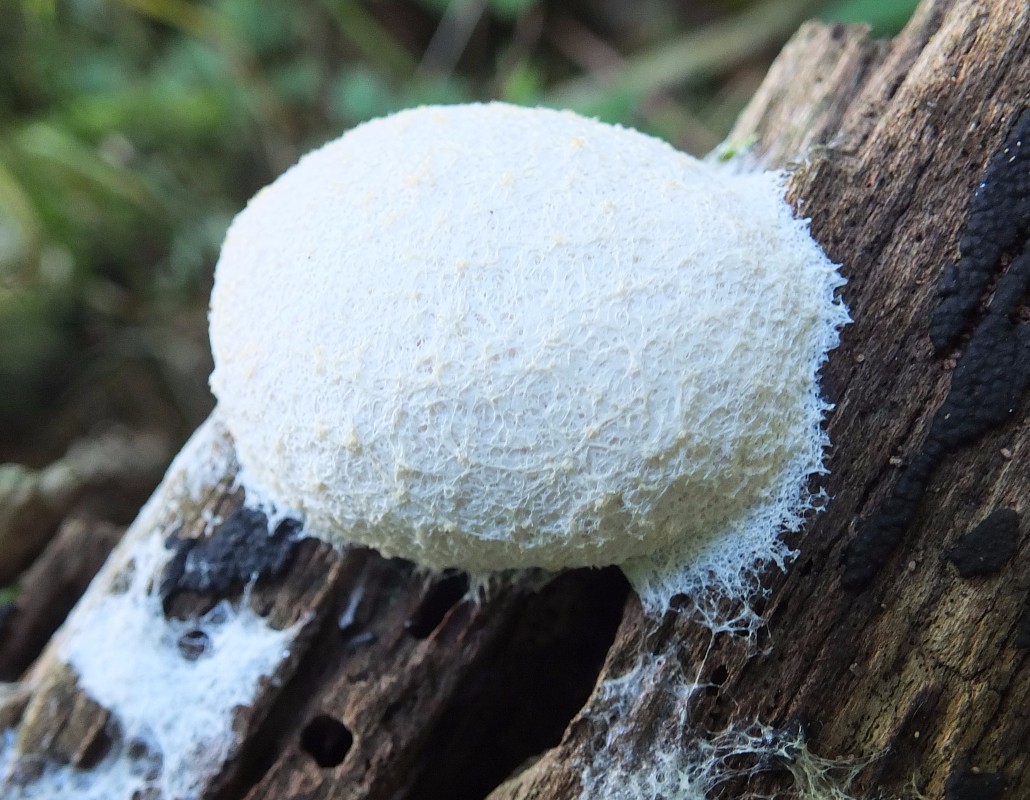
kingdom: Protozoa
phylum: Mycetozoa
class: Myxomycetes
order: Physarales
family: Physaraceae
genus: Fuligo
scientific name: Fuligo
